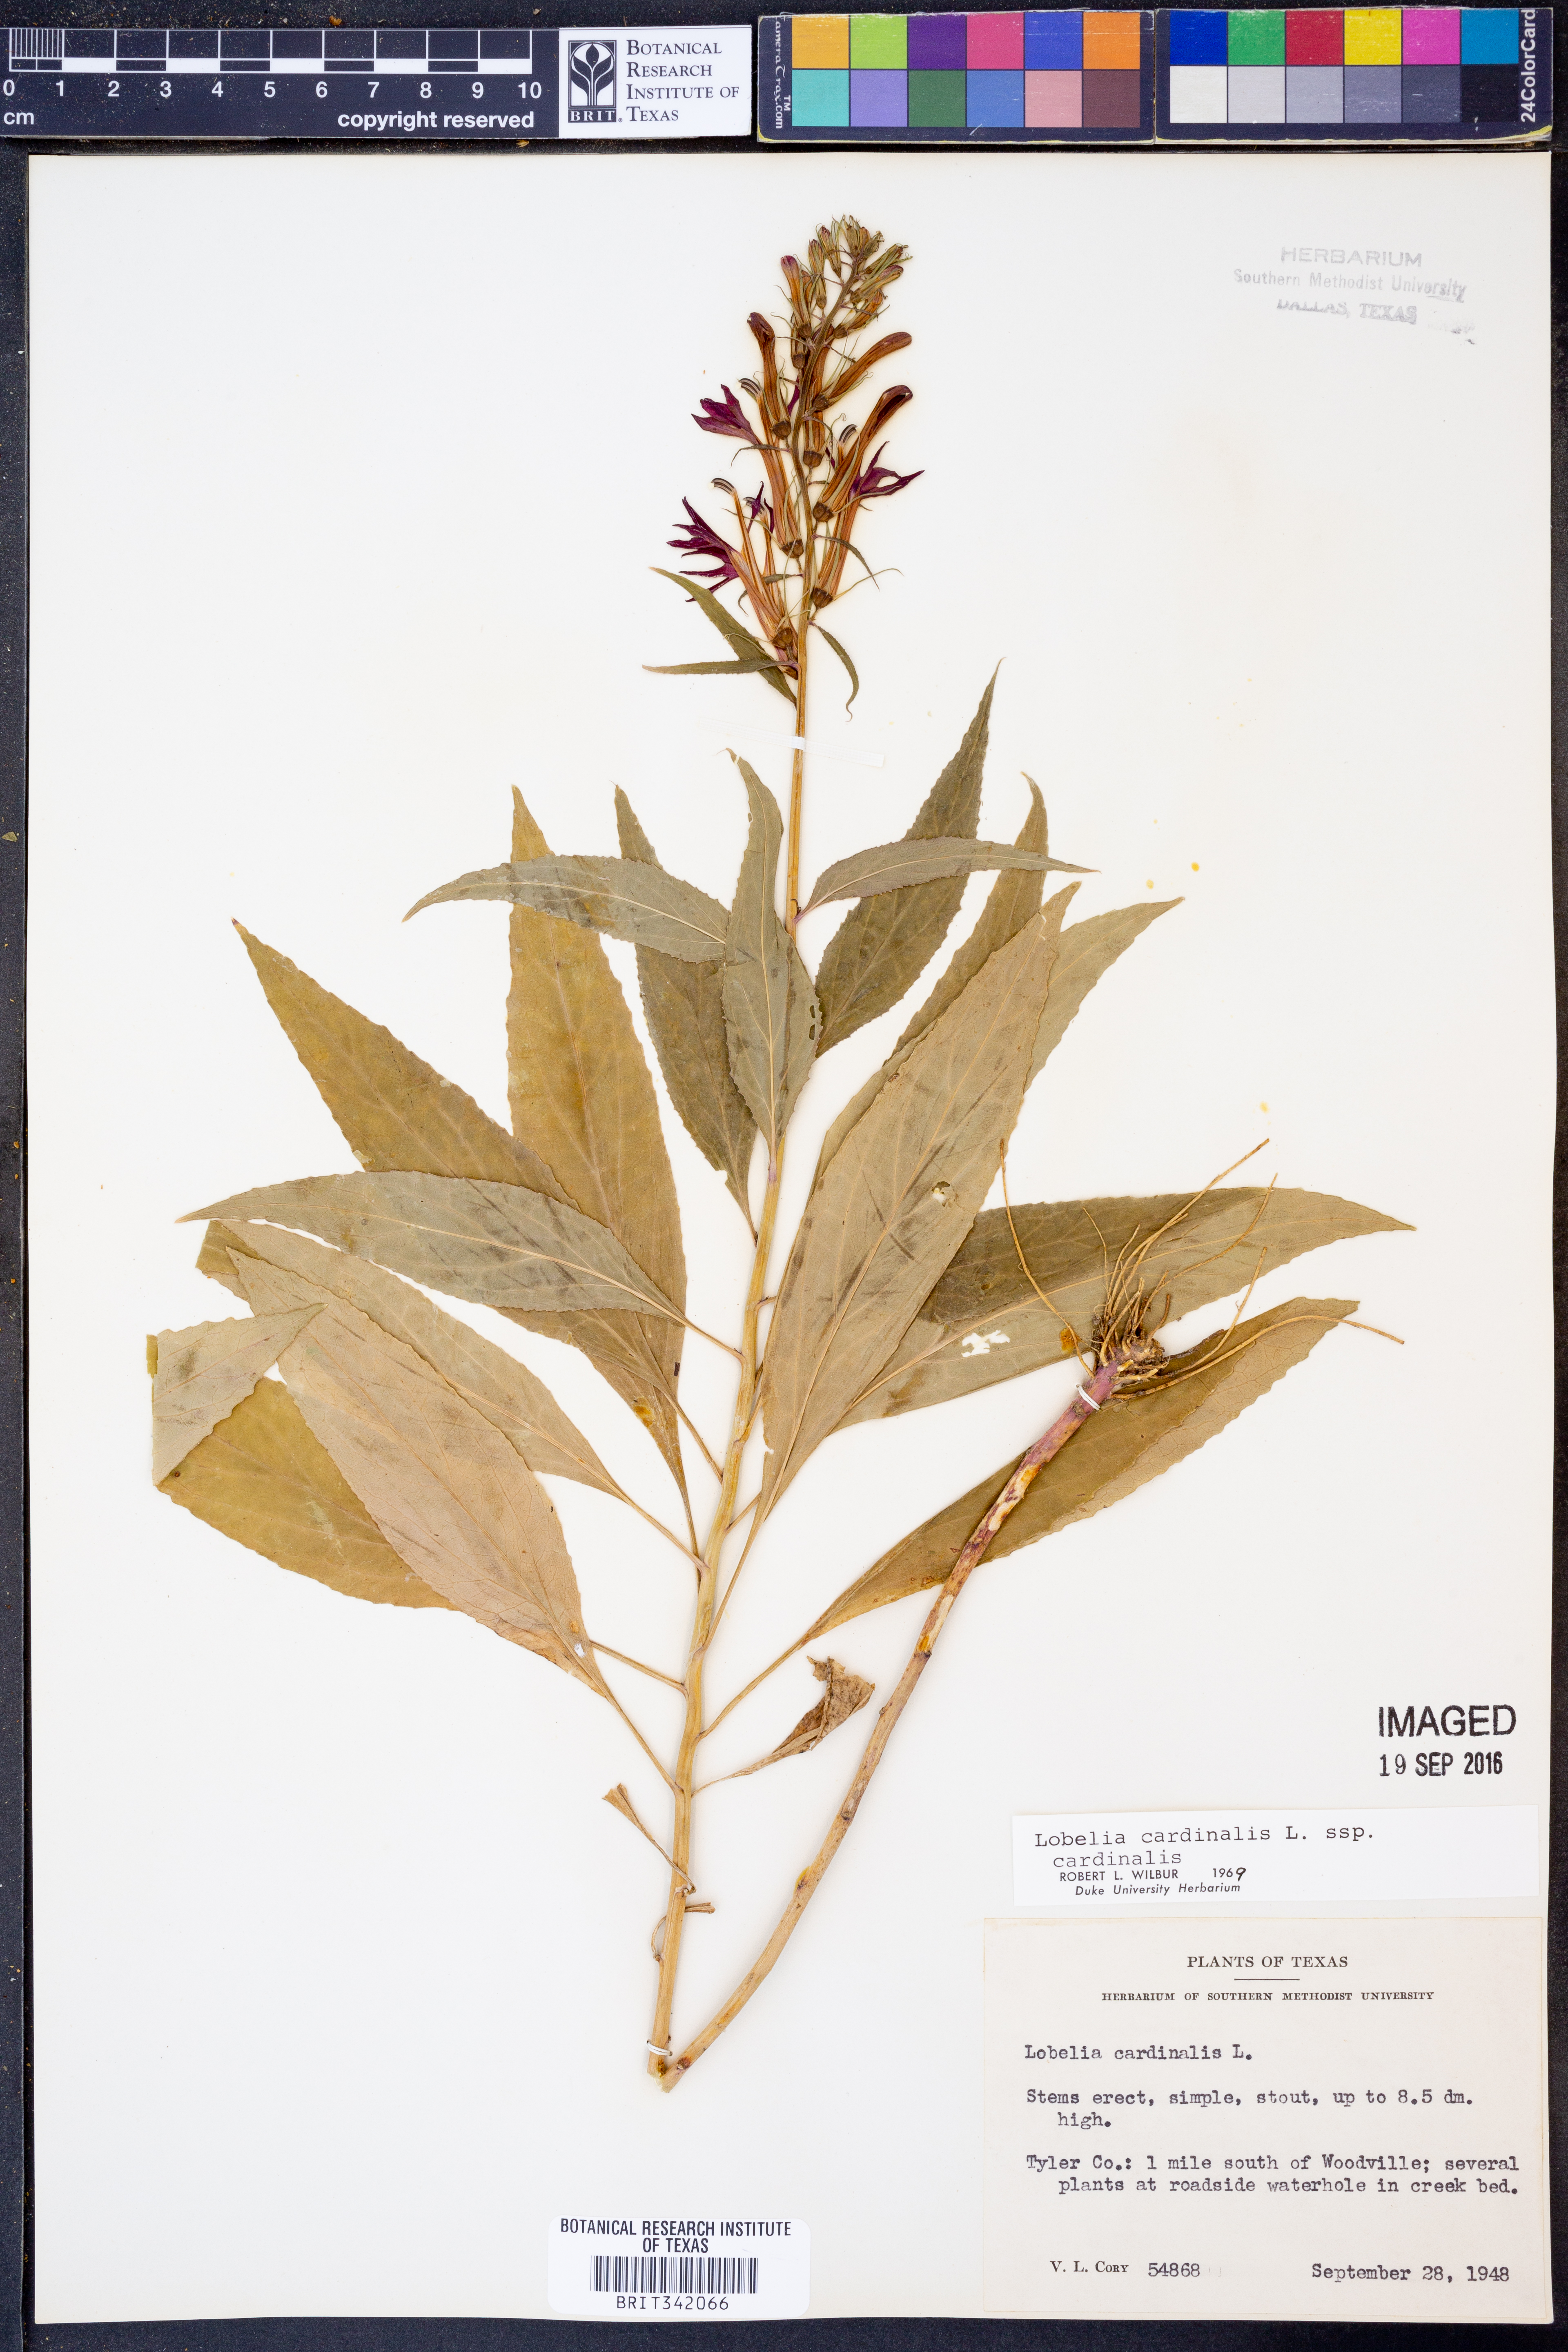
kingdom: Plantae
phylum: Tracheophyta
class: Magnoliopsida
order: Asterales
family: Campanulaceae
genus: Lobelia
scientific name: Lobelia cardinalis
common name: Cardinal flower
